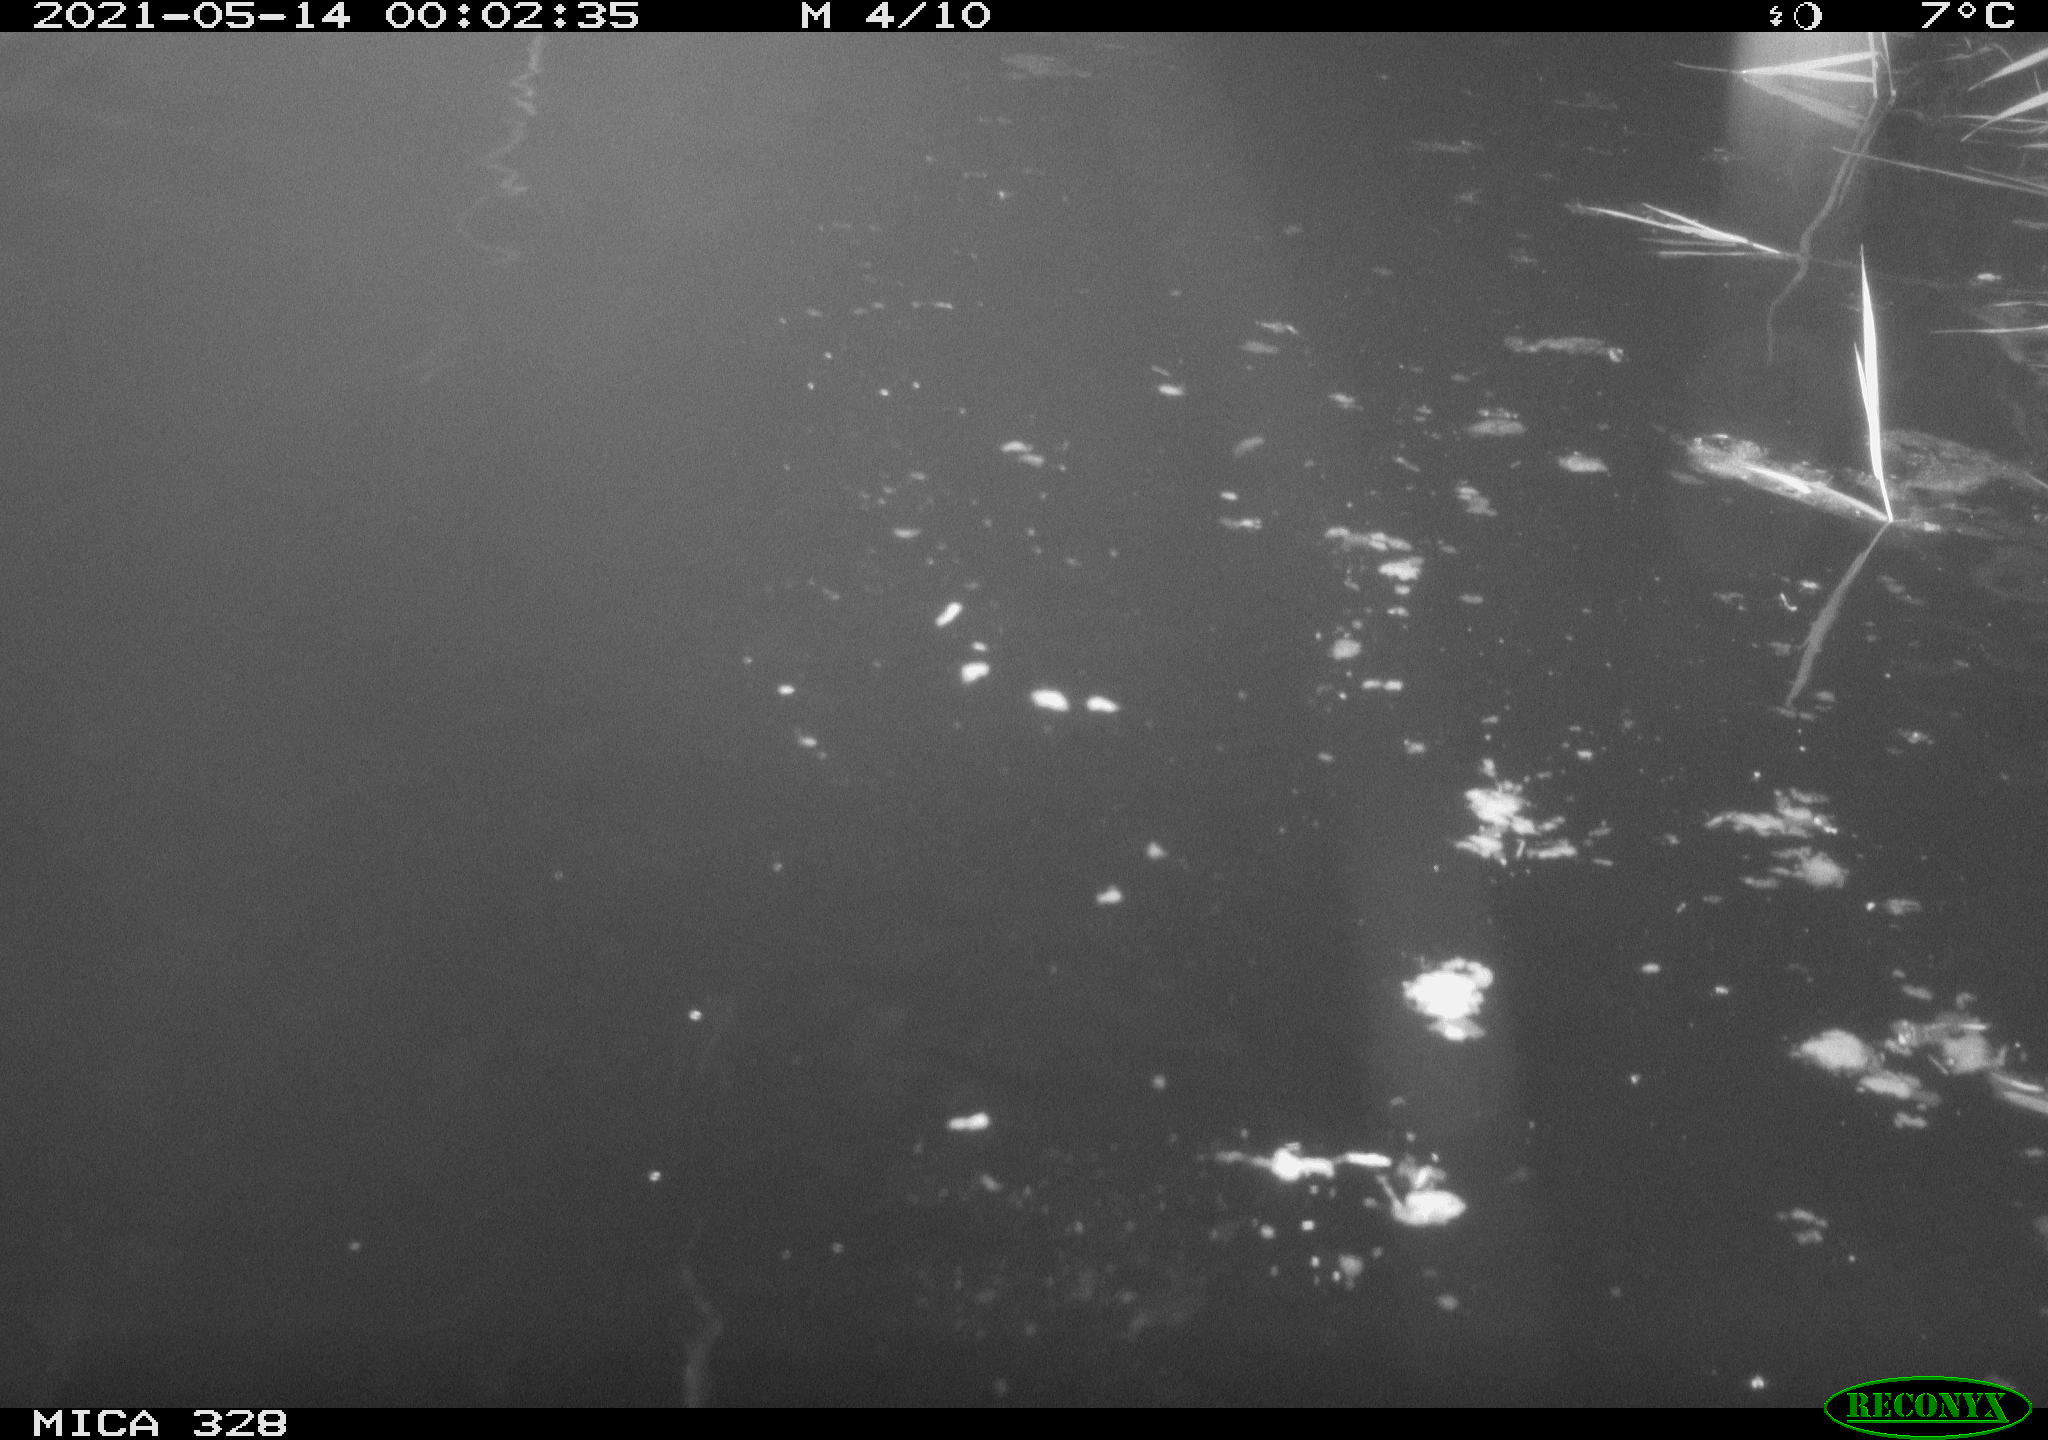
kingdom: Animalia
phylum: Chordata
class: Mammalia
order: Rodentia
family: Cricetidae
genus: Ondatra
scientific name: Ondatra zibethicus
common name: Muskrat
